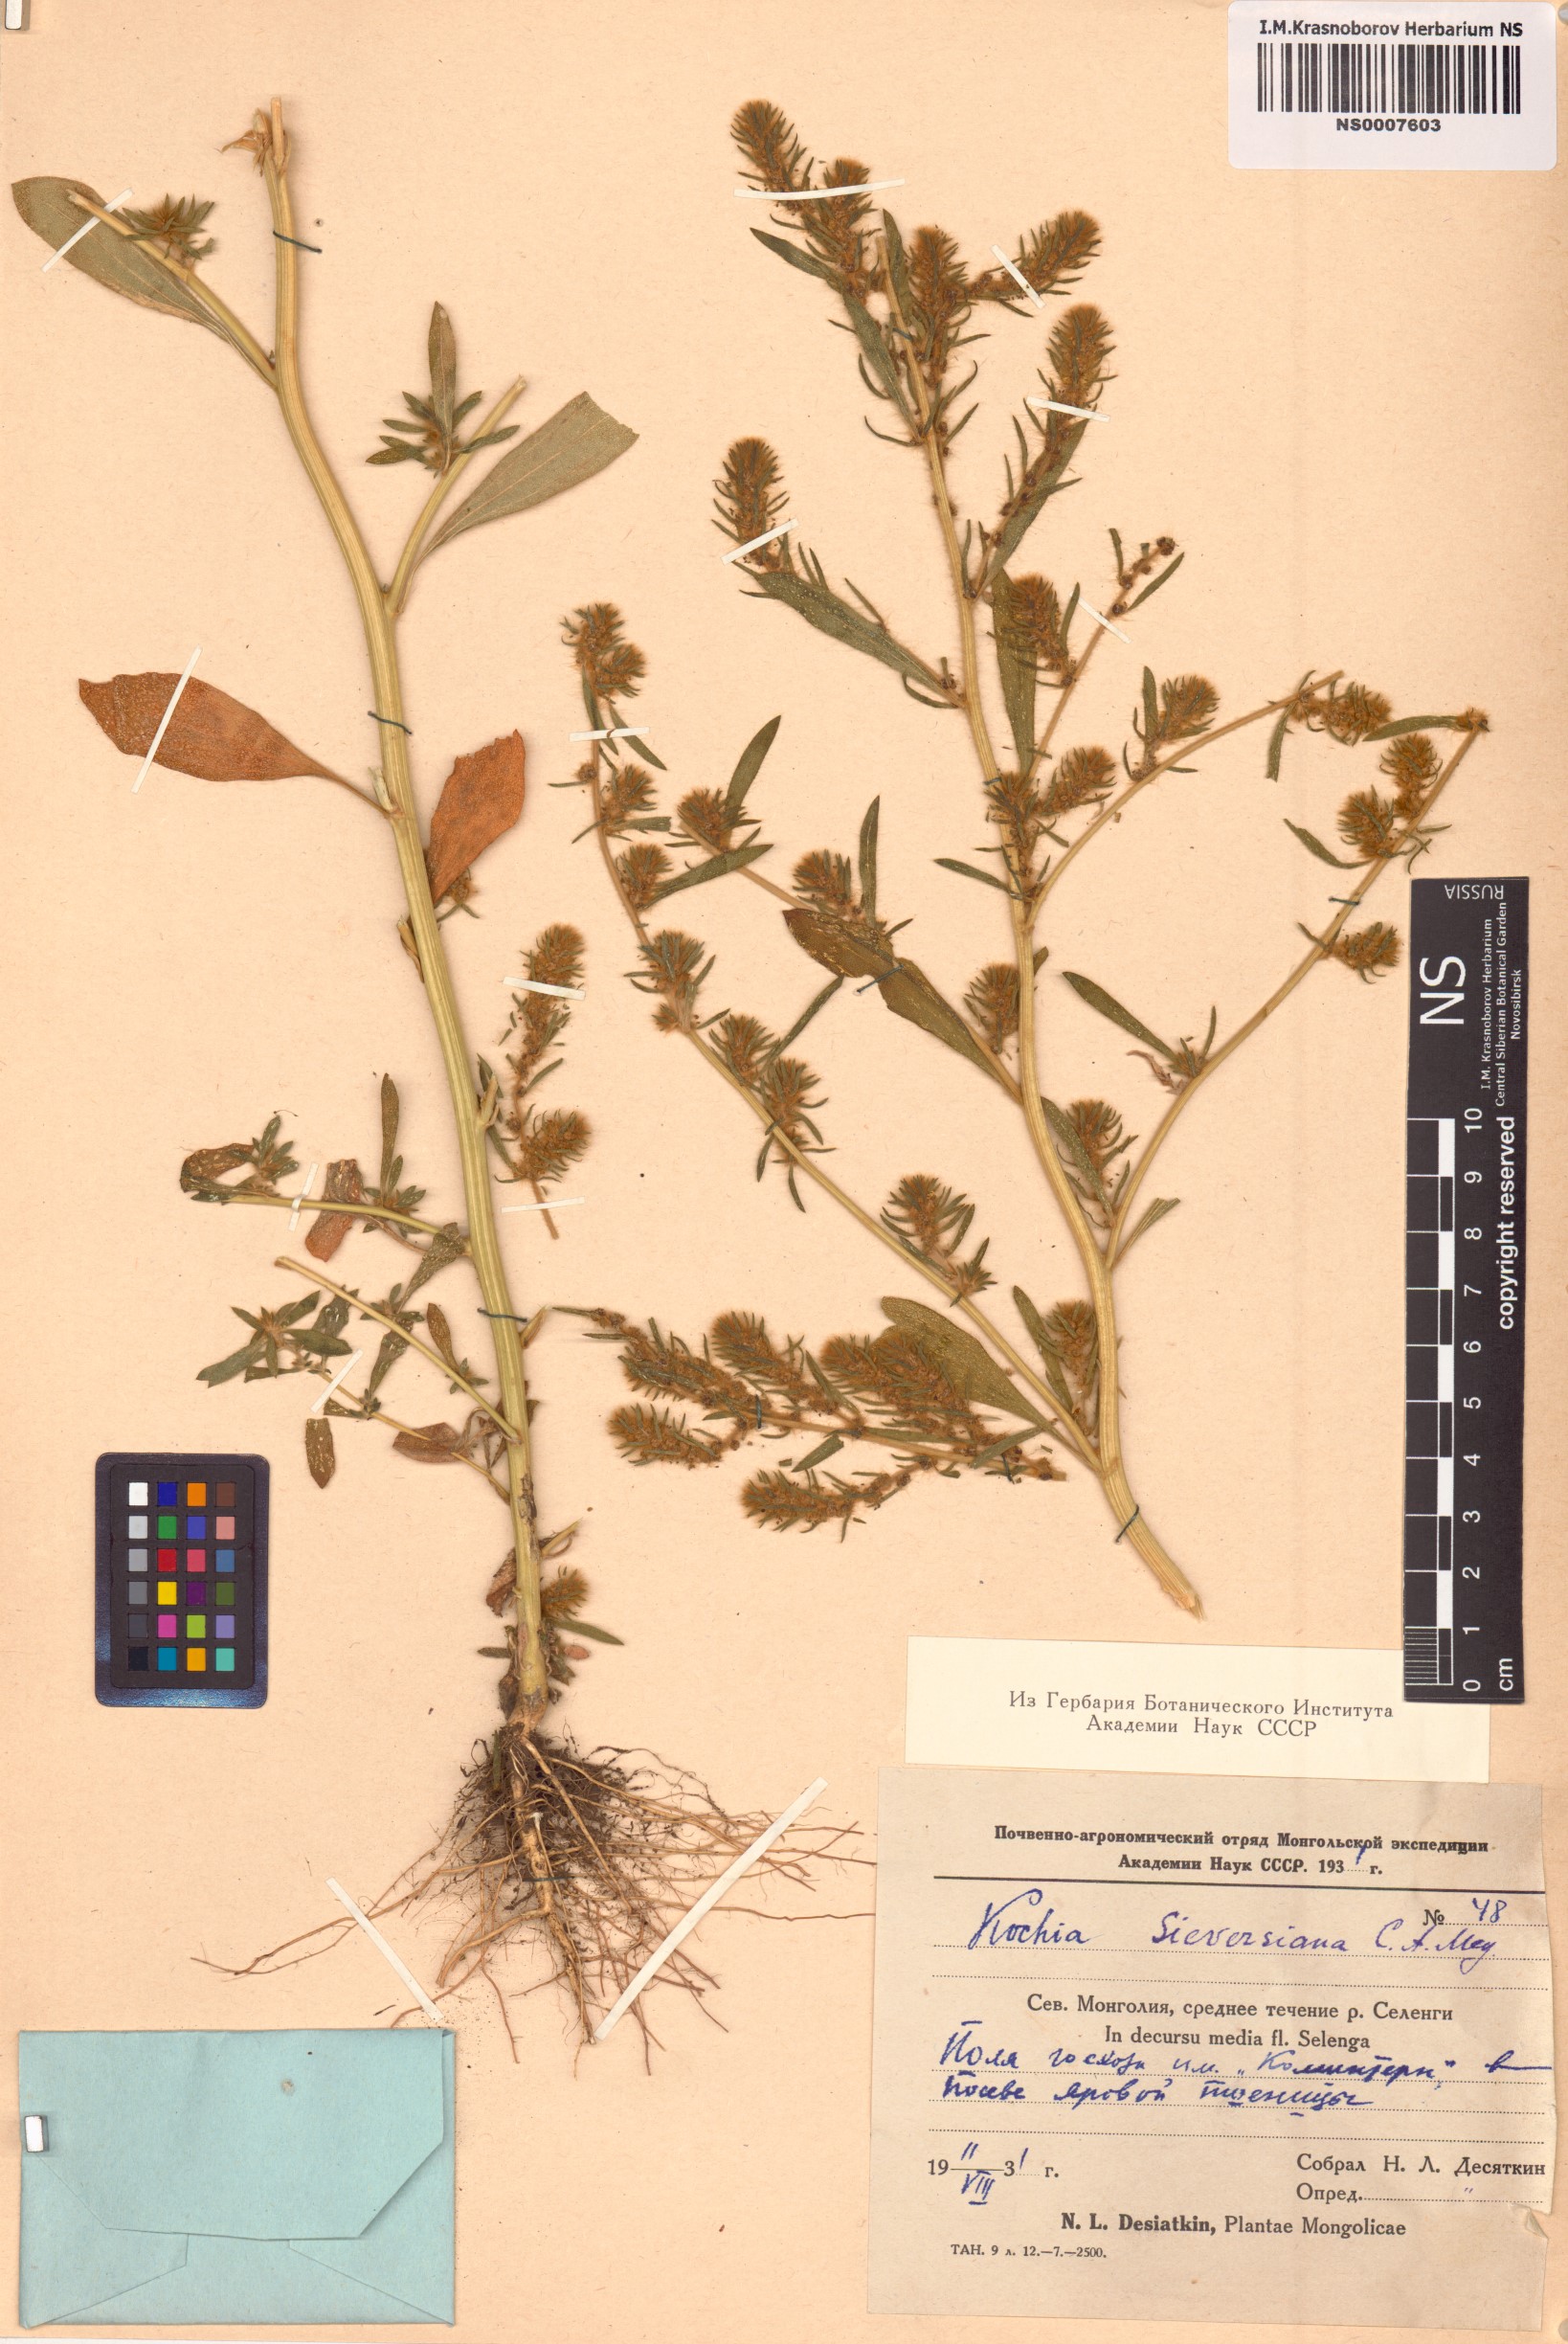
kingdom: Plantae
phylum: Tracheophyta
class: Magnoliopsida
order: Caryophyllales
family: Amaranthaceae
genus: Bassia
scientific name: Bassia scoparia
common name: Belvedere
